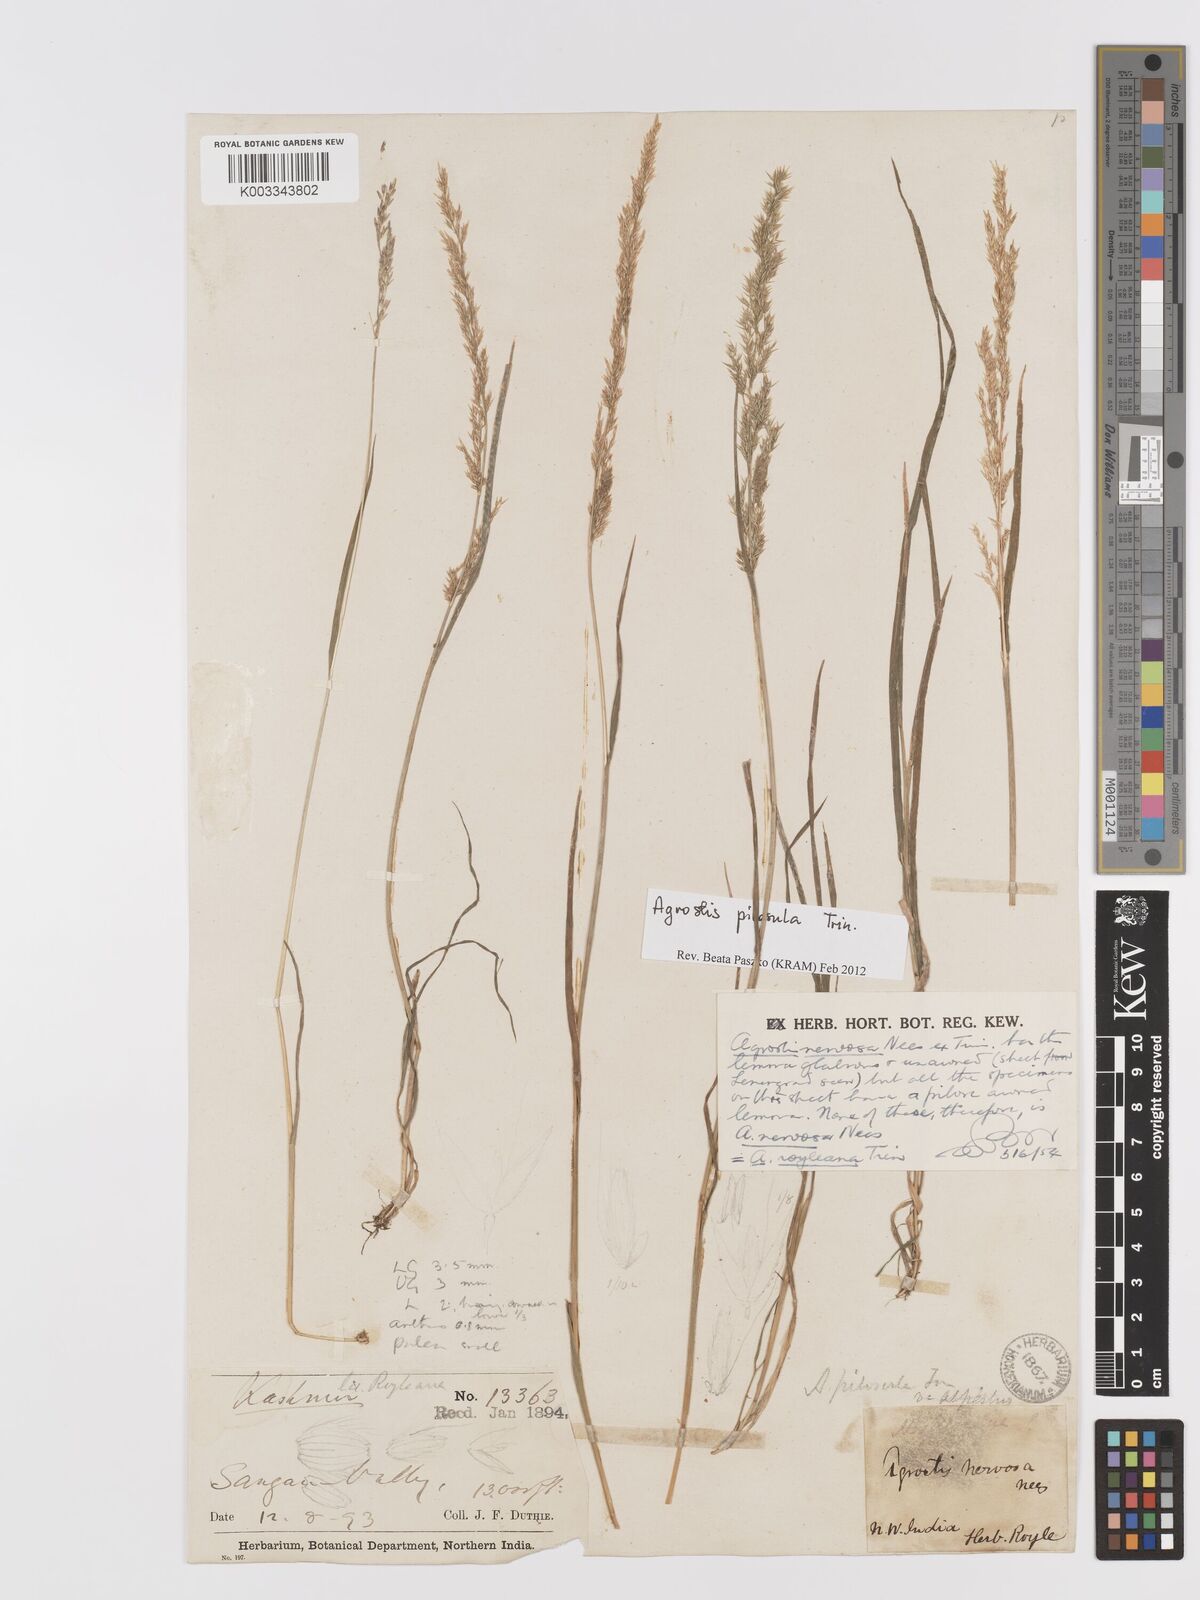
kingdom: Plantae
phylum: Tracheophyta
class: Liliopsida
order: Poales
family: Poaceae
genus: Agrostis
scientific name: Agrostis pilosula
